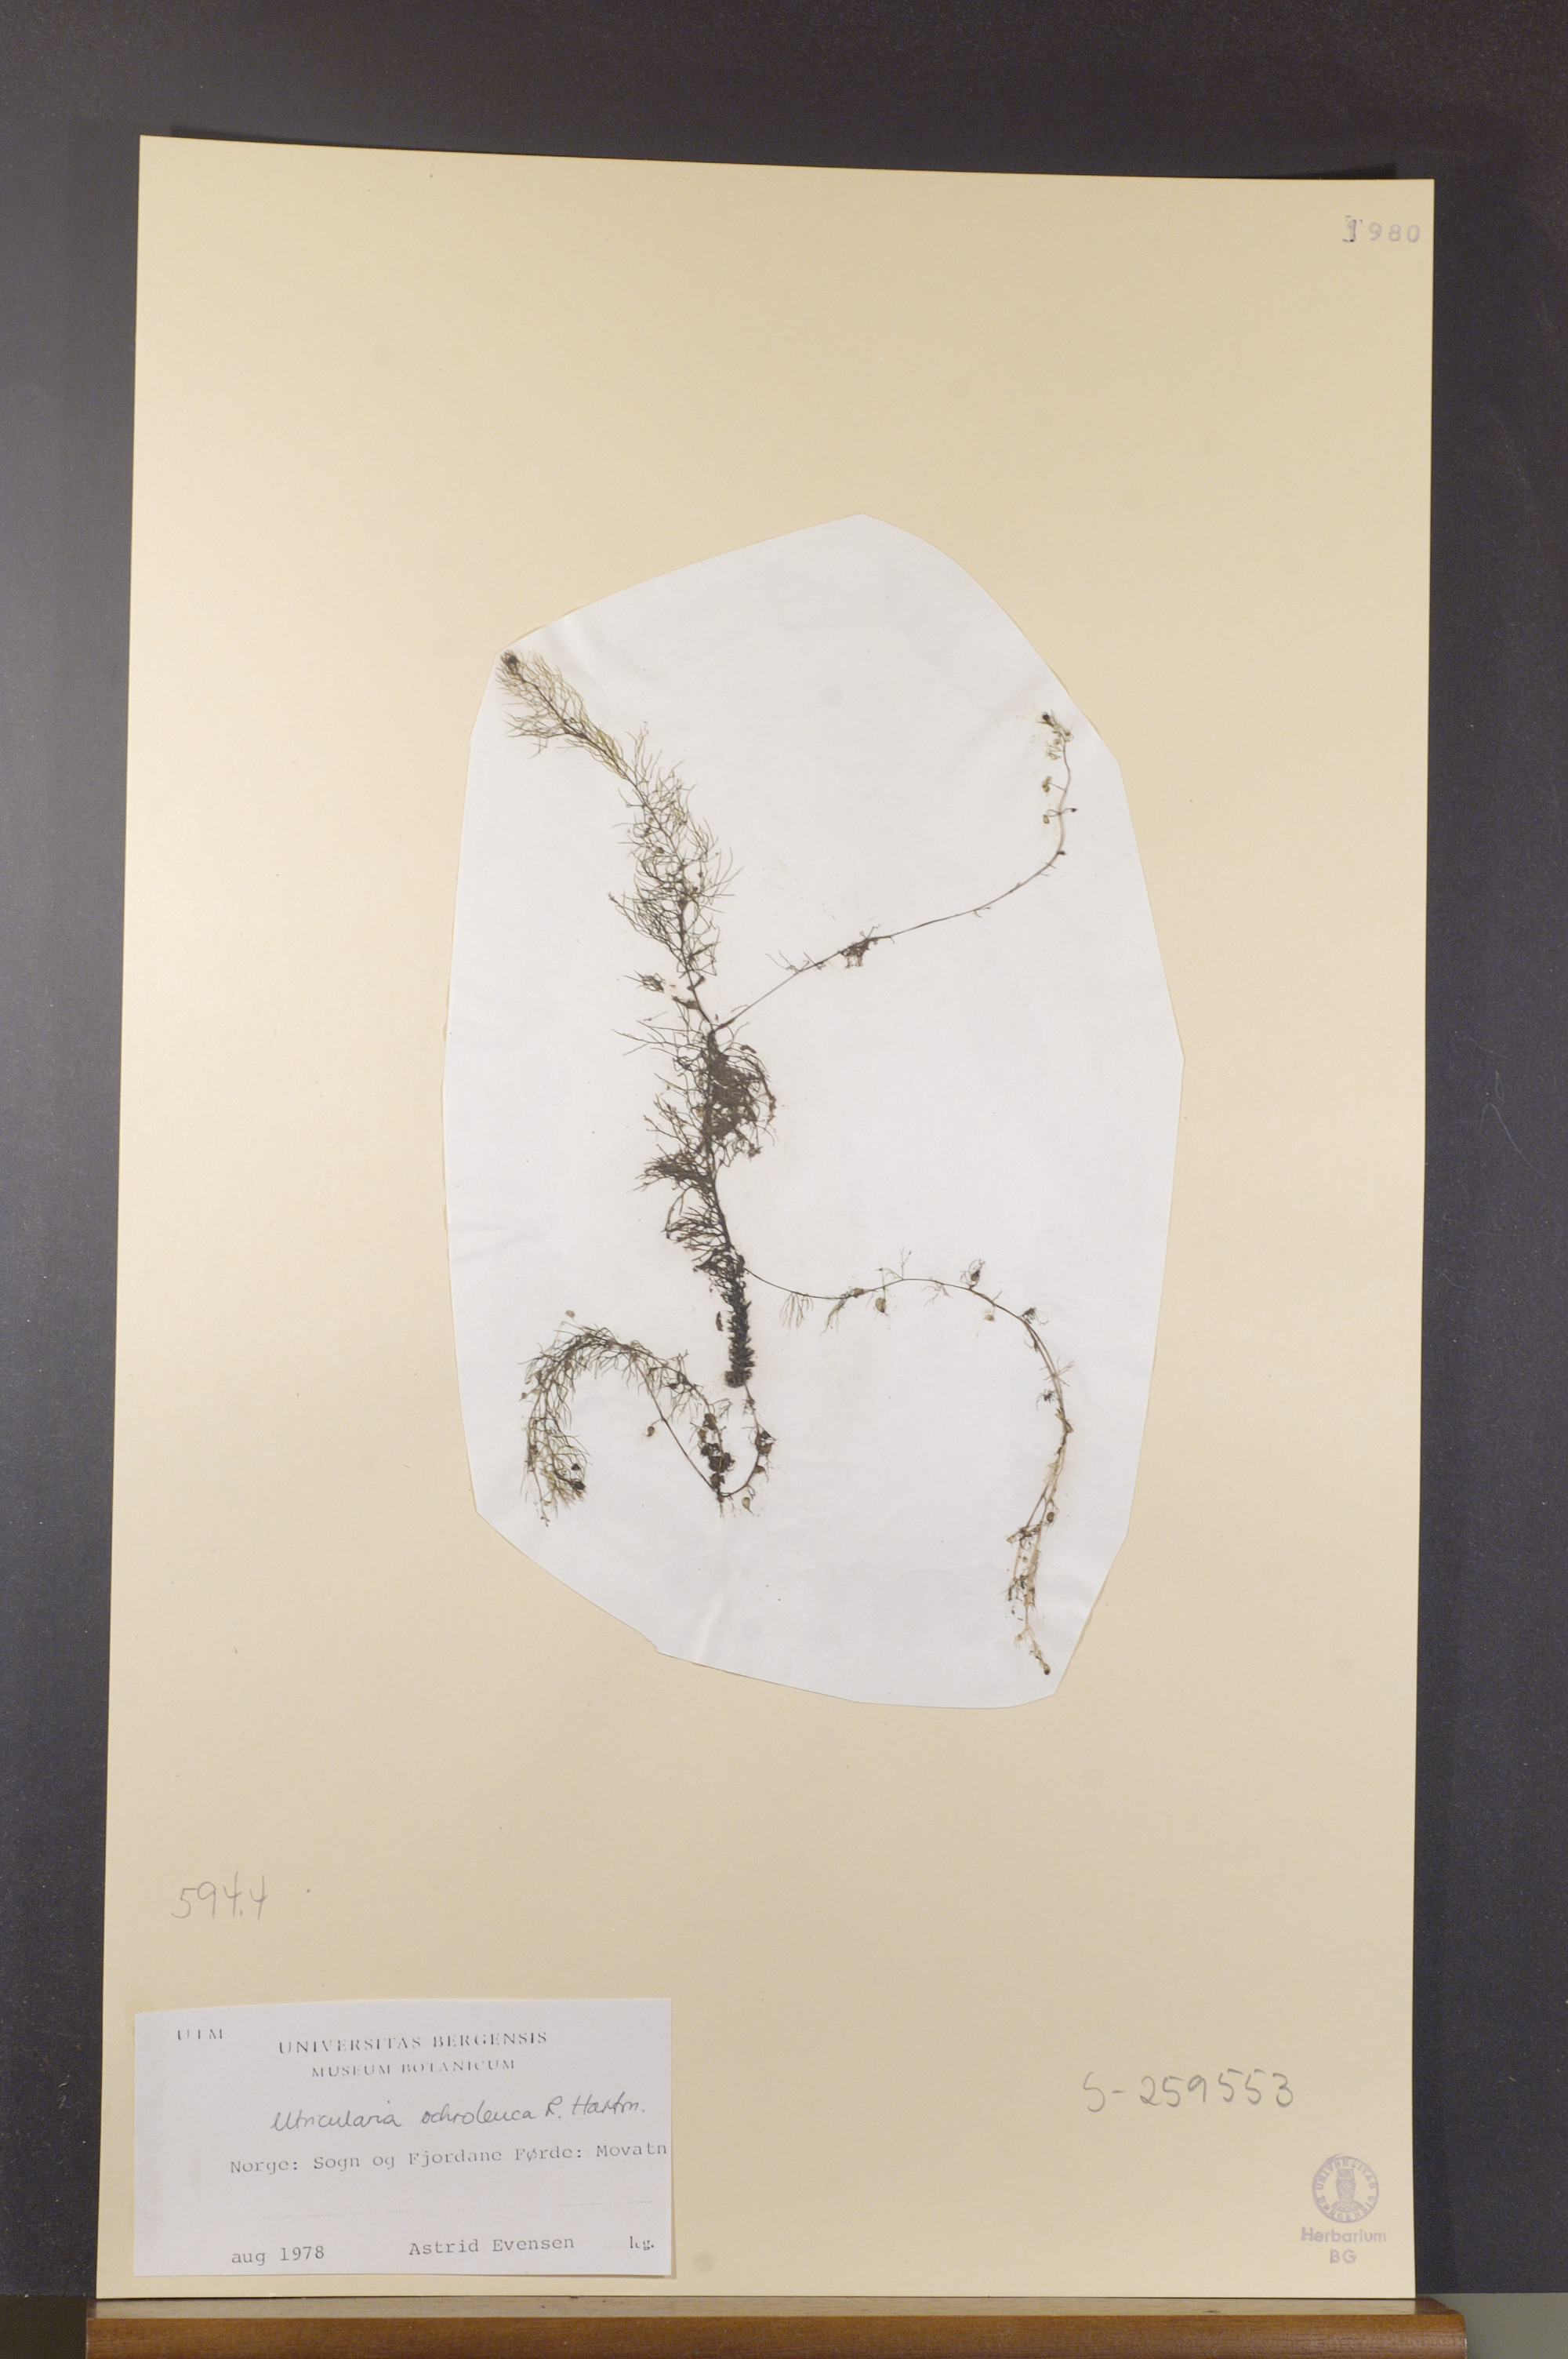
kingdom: Plantae
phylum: Tracheophyta
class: Magnoliopsida
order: Lamiales
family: Lentibulariaceae
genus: Utricularia
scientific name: Utricularia ochroleuca
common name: Pale bladderwort
